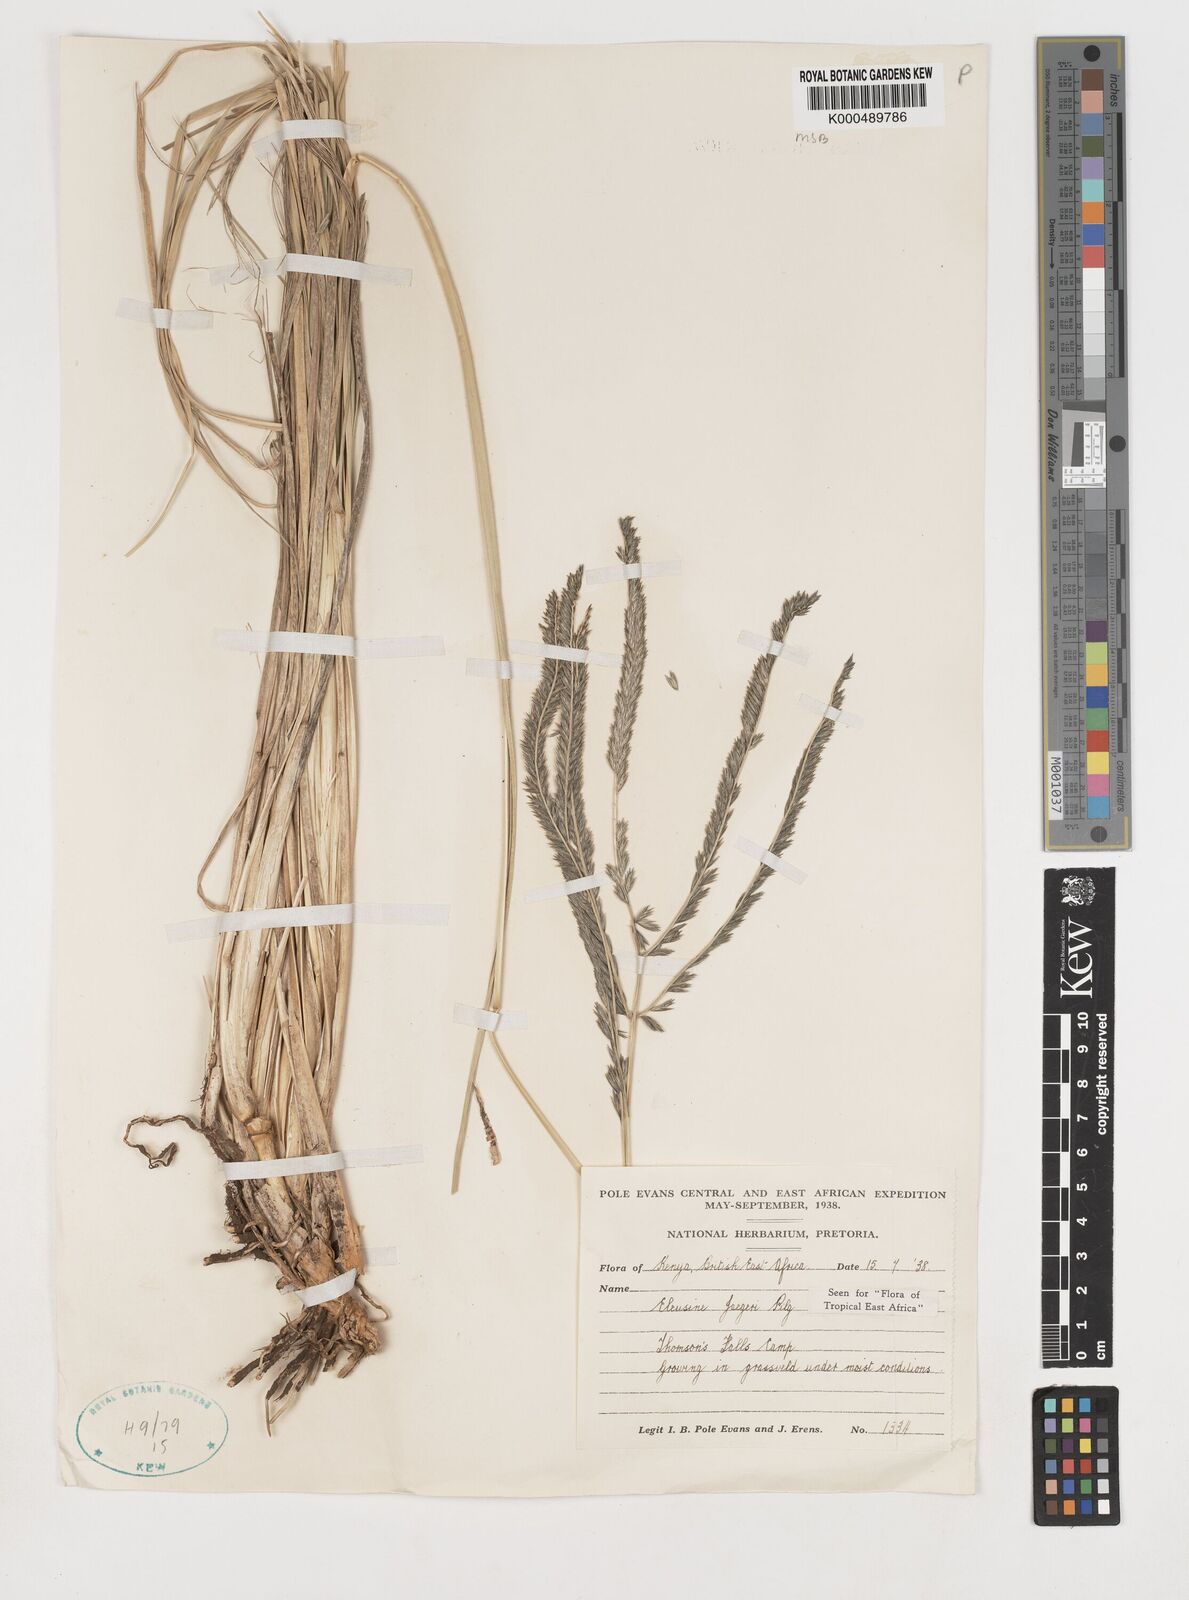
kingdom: Plantae
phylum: Tracheophyta
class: Liliopsida
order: Poales
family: Poaceae
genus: Eleusine
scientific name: Eleusine jaegeri
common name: Manyatta grass
